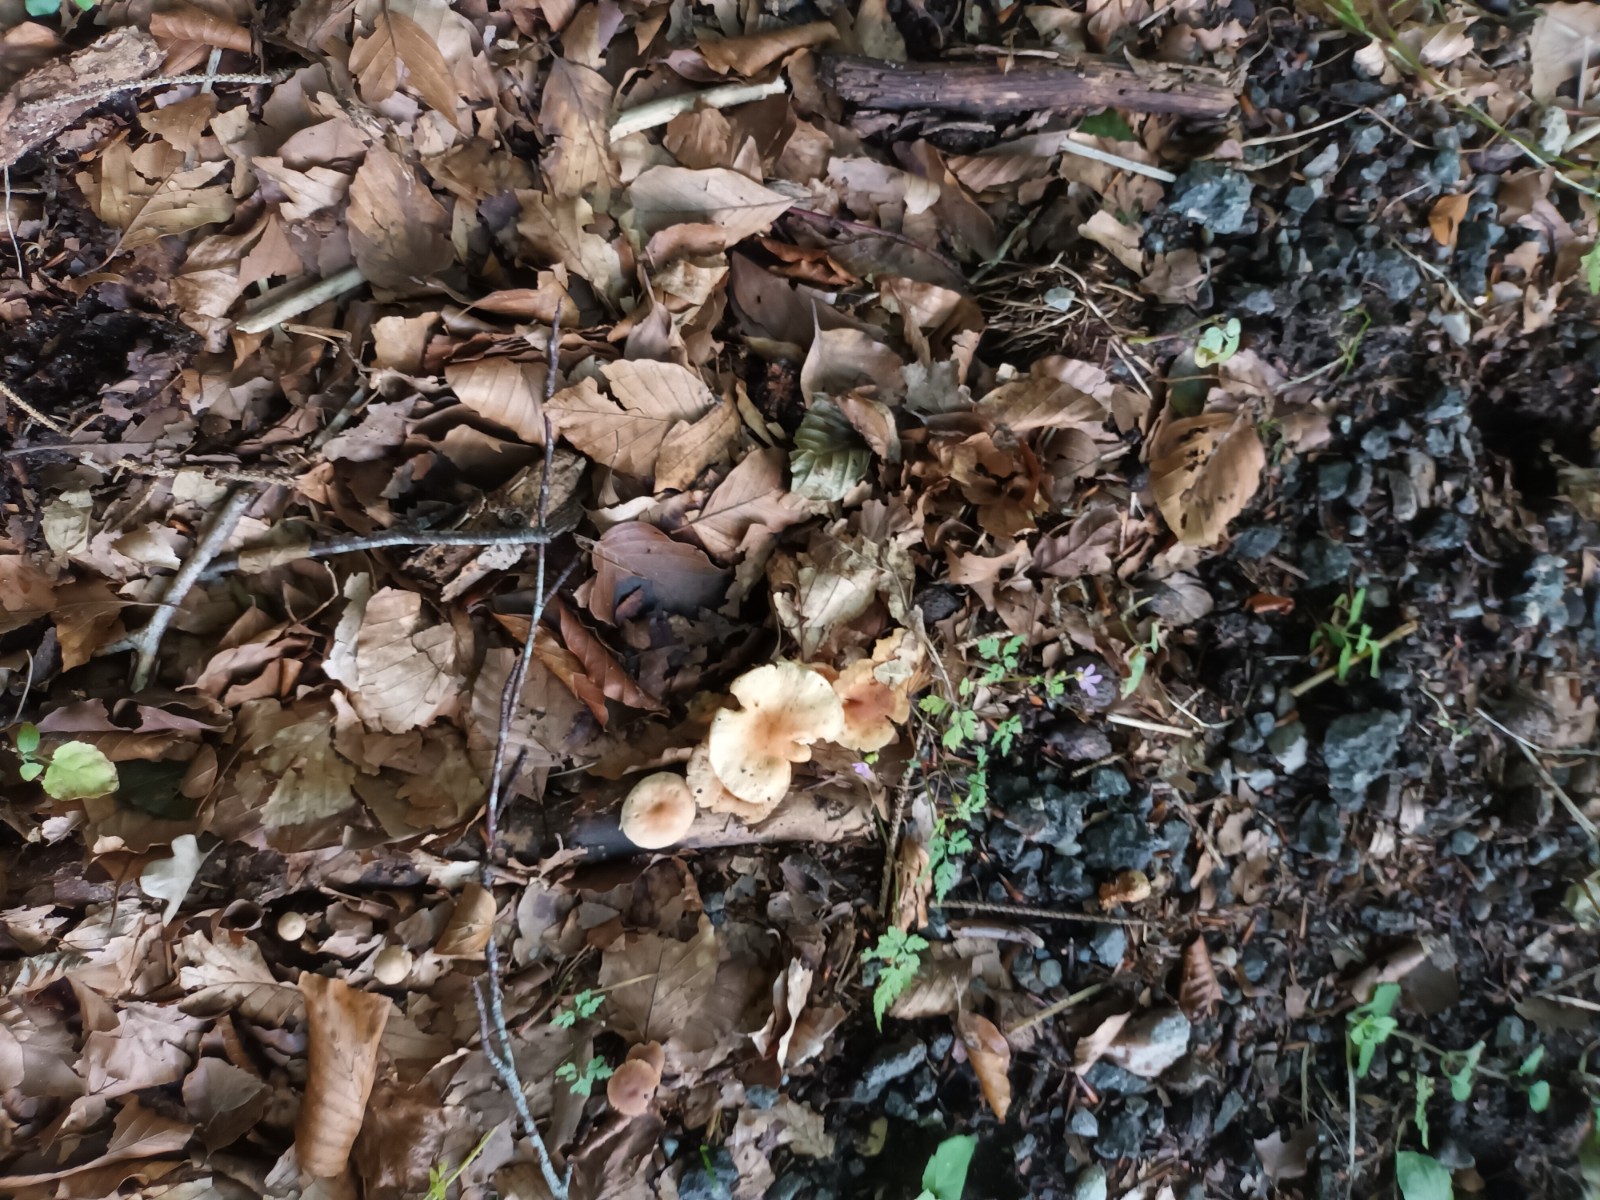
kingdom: Fungi
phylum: Basidiomycota
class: Agaricomycetes
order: Agaricales
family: Omphalotaceae
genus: Gymnopus
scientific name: Gymnopus dryophilus
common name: løv-fladhat
